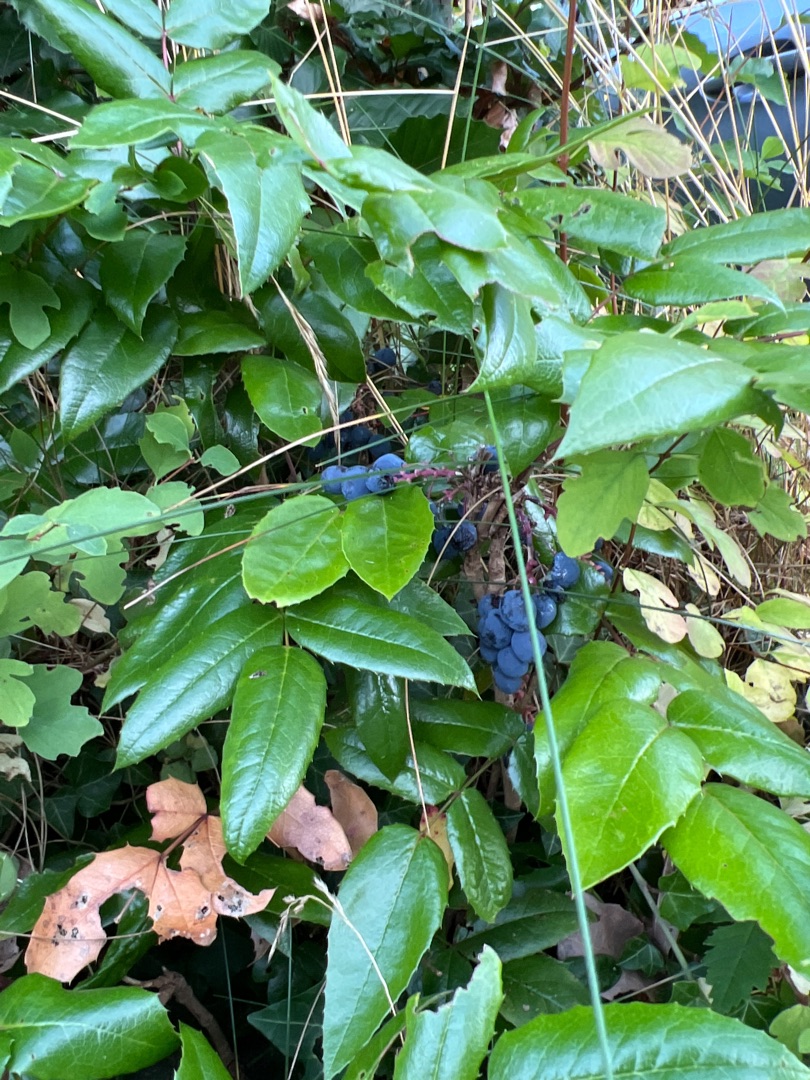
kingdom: Plantae
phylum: Tracheophyta
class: Magnoliopsida
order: Ranunculales
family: Berberidaceae
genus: Mahonia
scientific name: Mahonia aquifolium
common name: Almindelig mahonie
